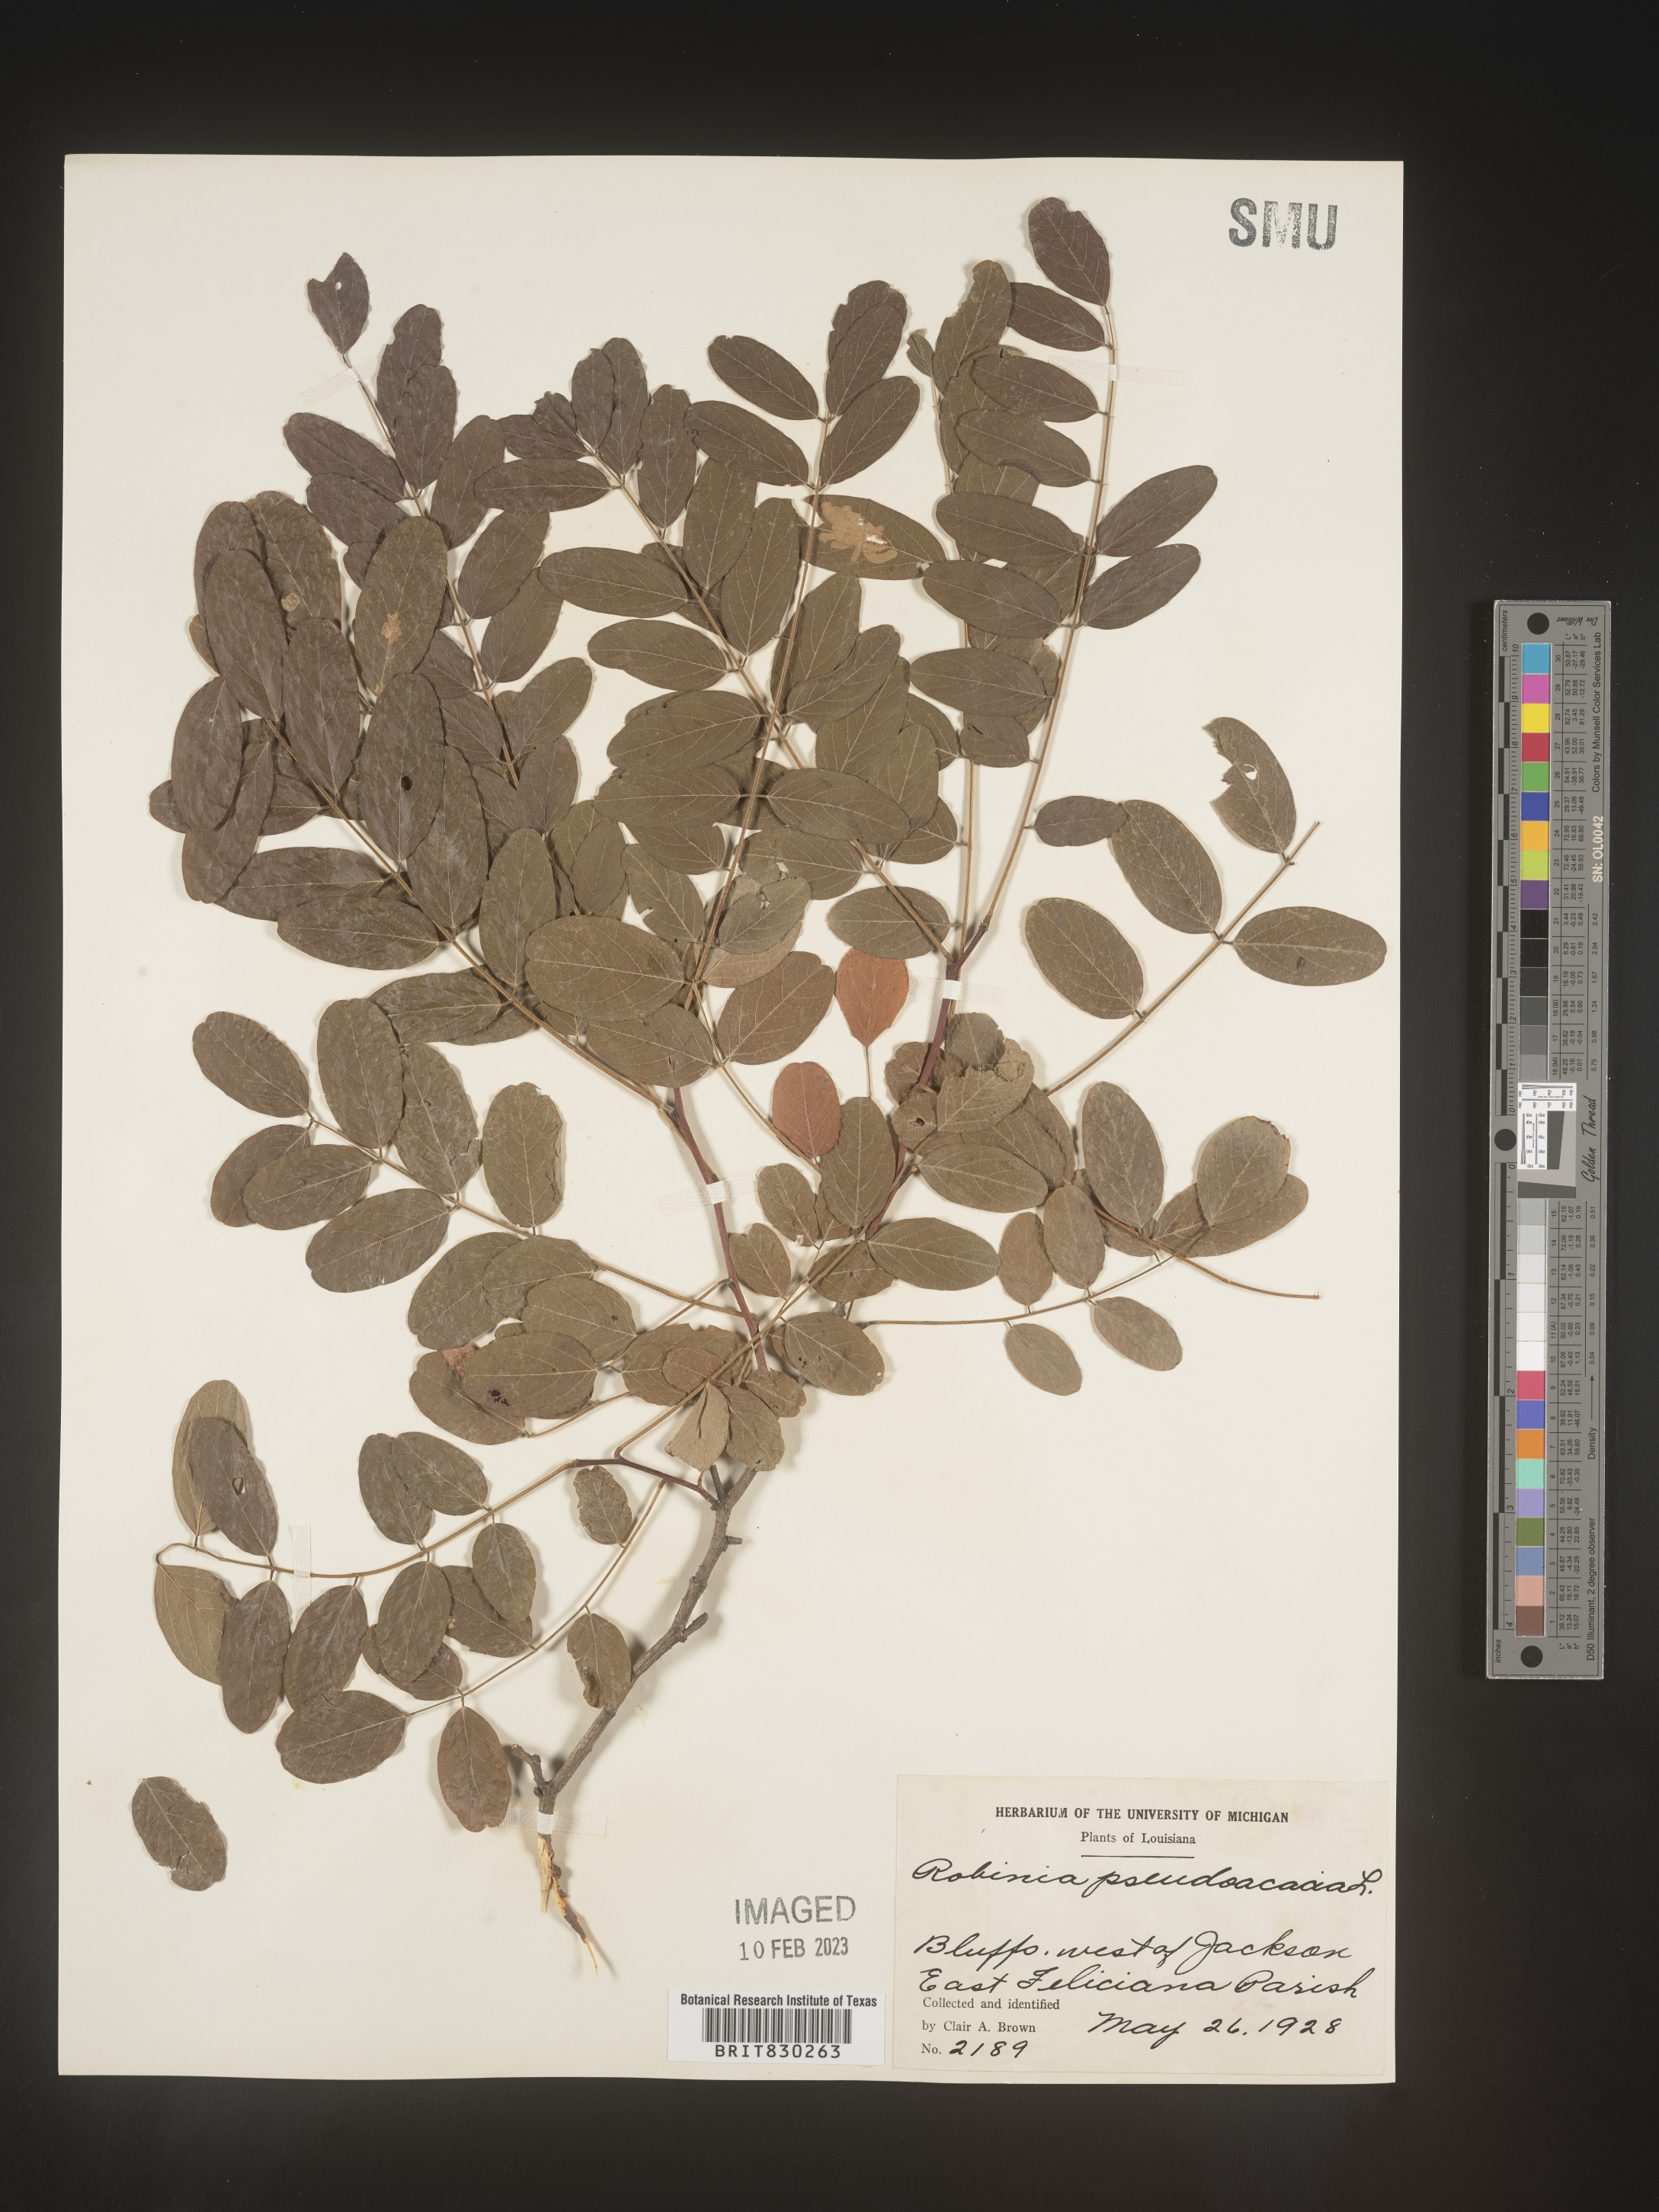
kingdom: Plantae
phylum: Tracheophyta
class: Magnoliopsida
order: Fabales
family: Fabaceae
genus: Robinia
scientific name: Robinia pseudoacacia
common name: Black locust
